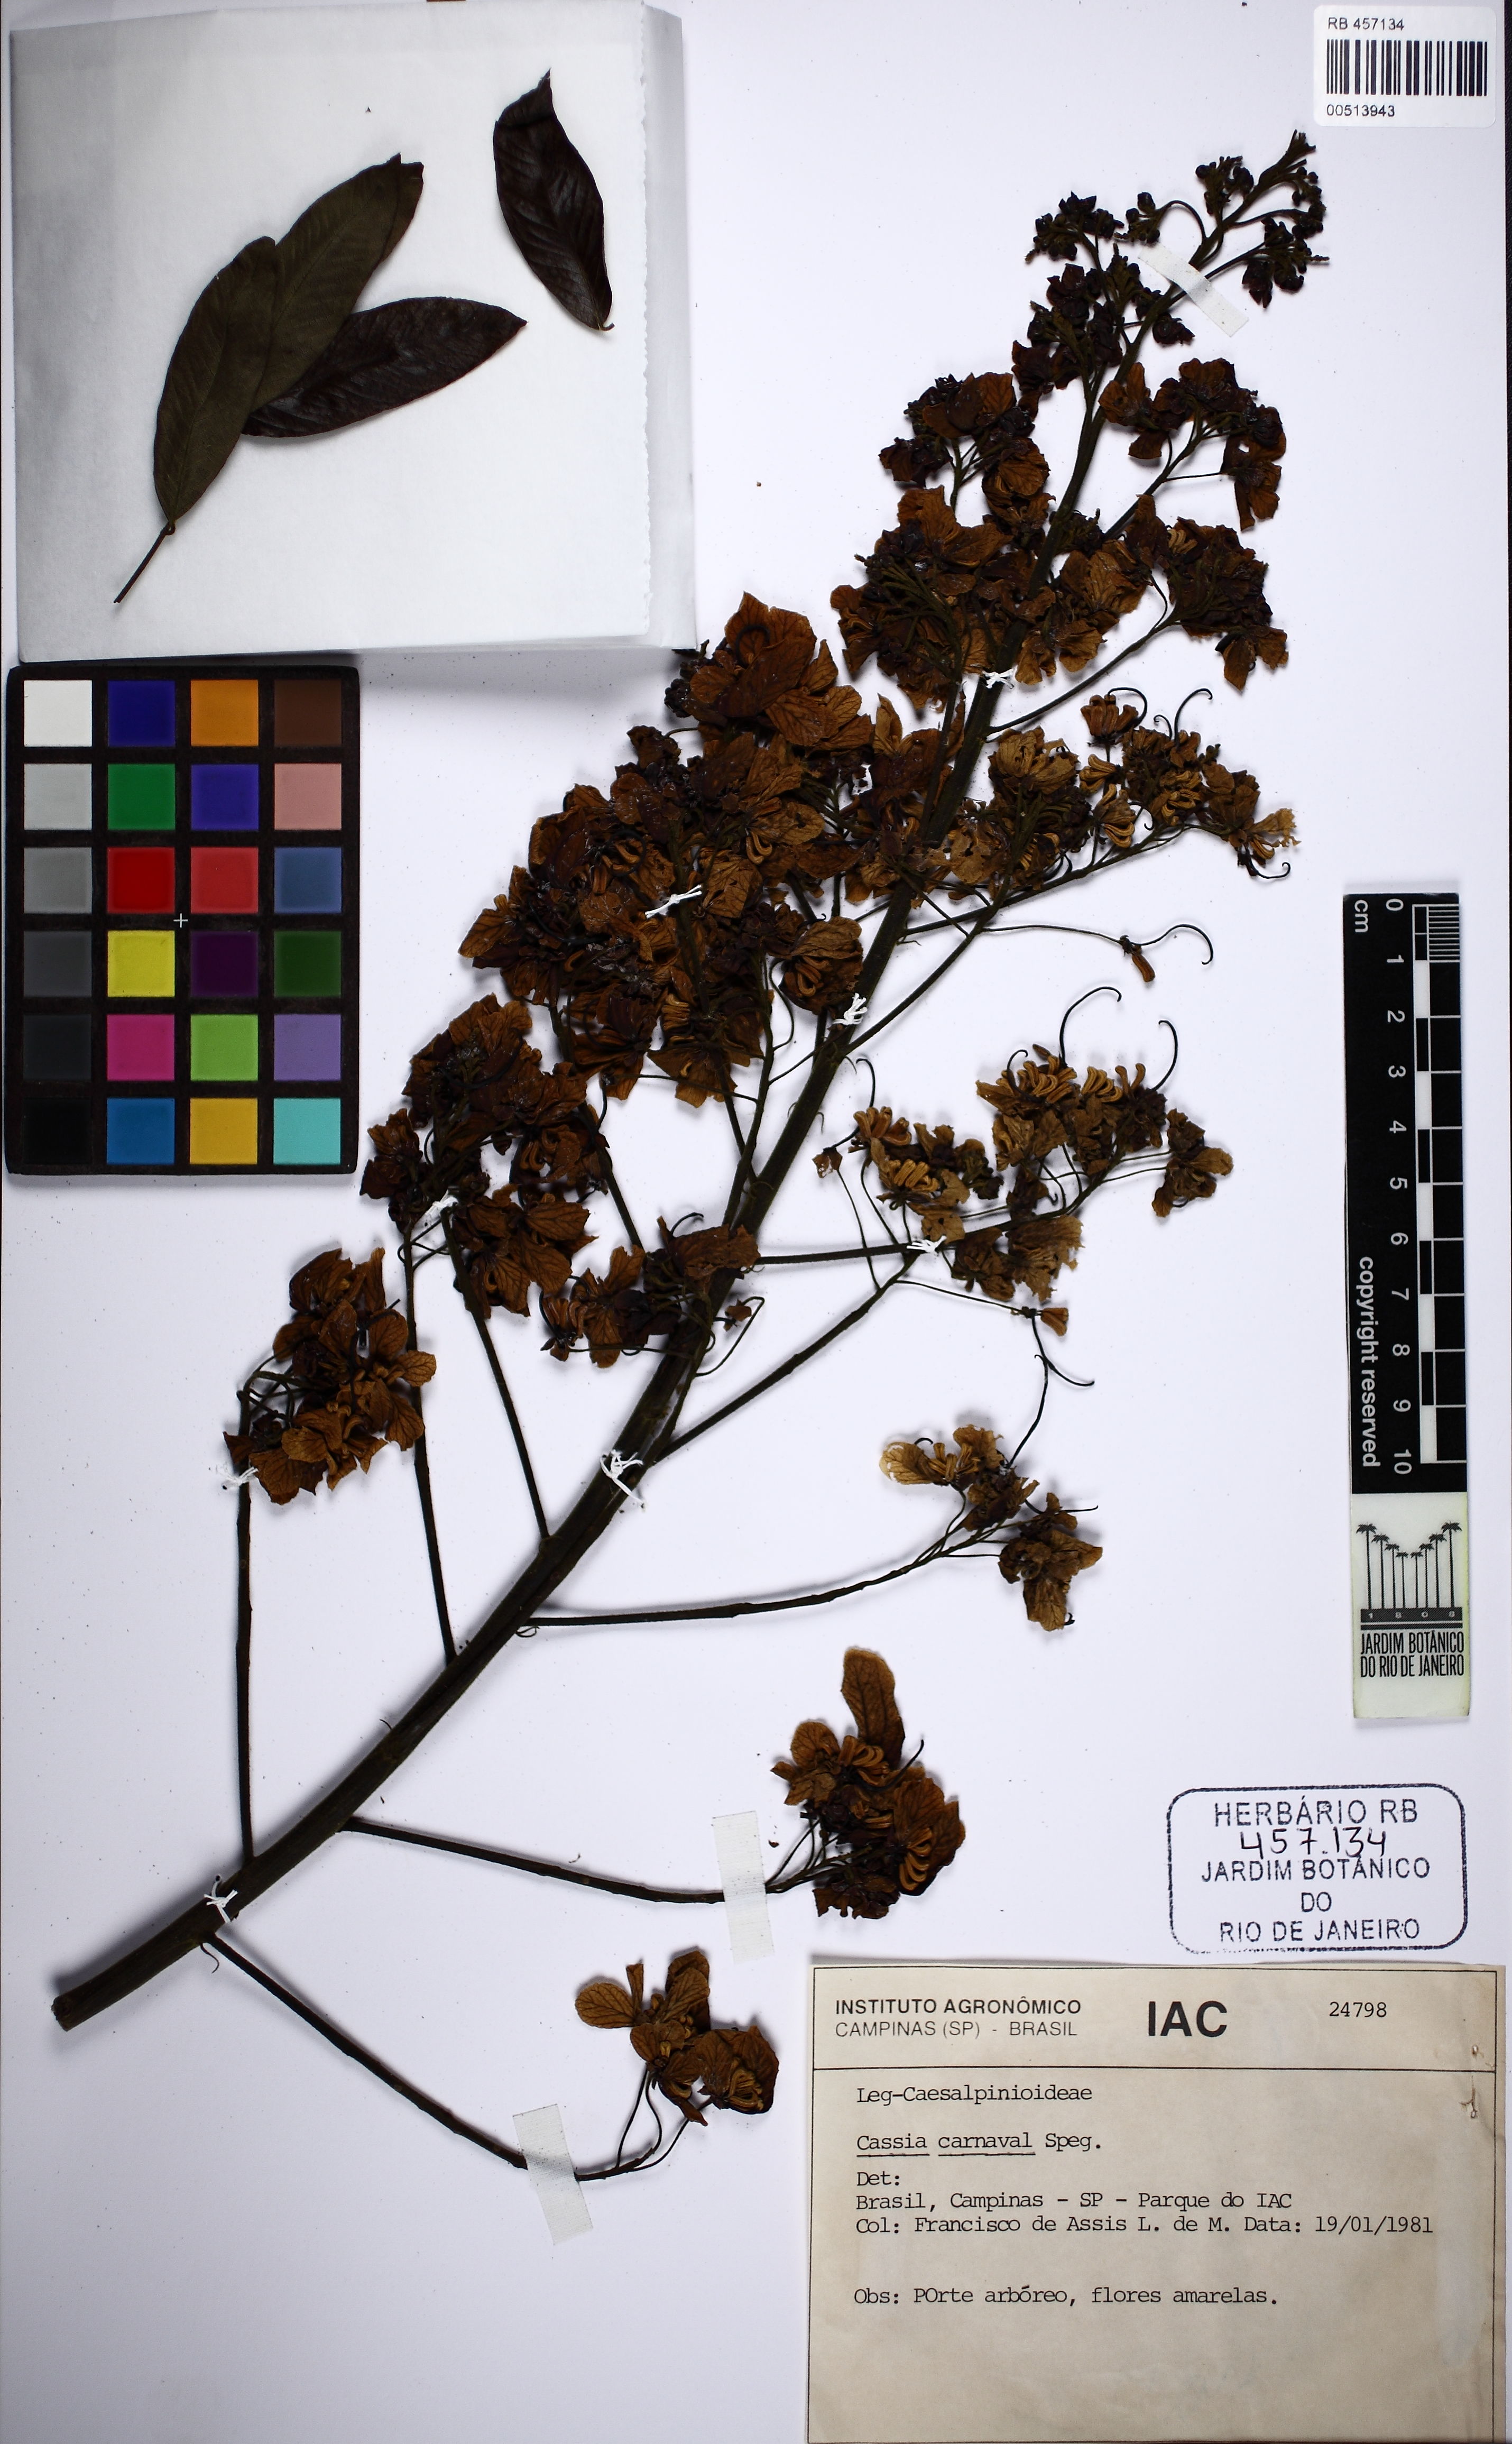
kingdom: Plantae
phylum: Tracheophyta
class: Magnoliopsida
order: Fabales
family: Fabaceae
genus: Senna
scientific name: Senna spectabilis
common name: Casia amarilla
